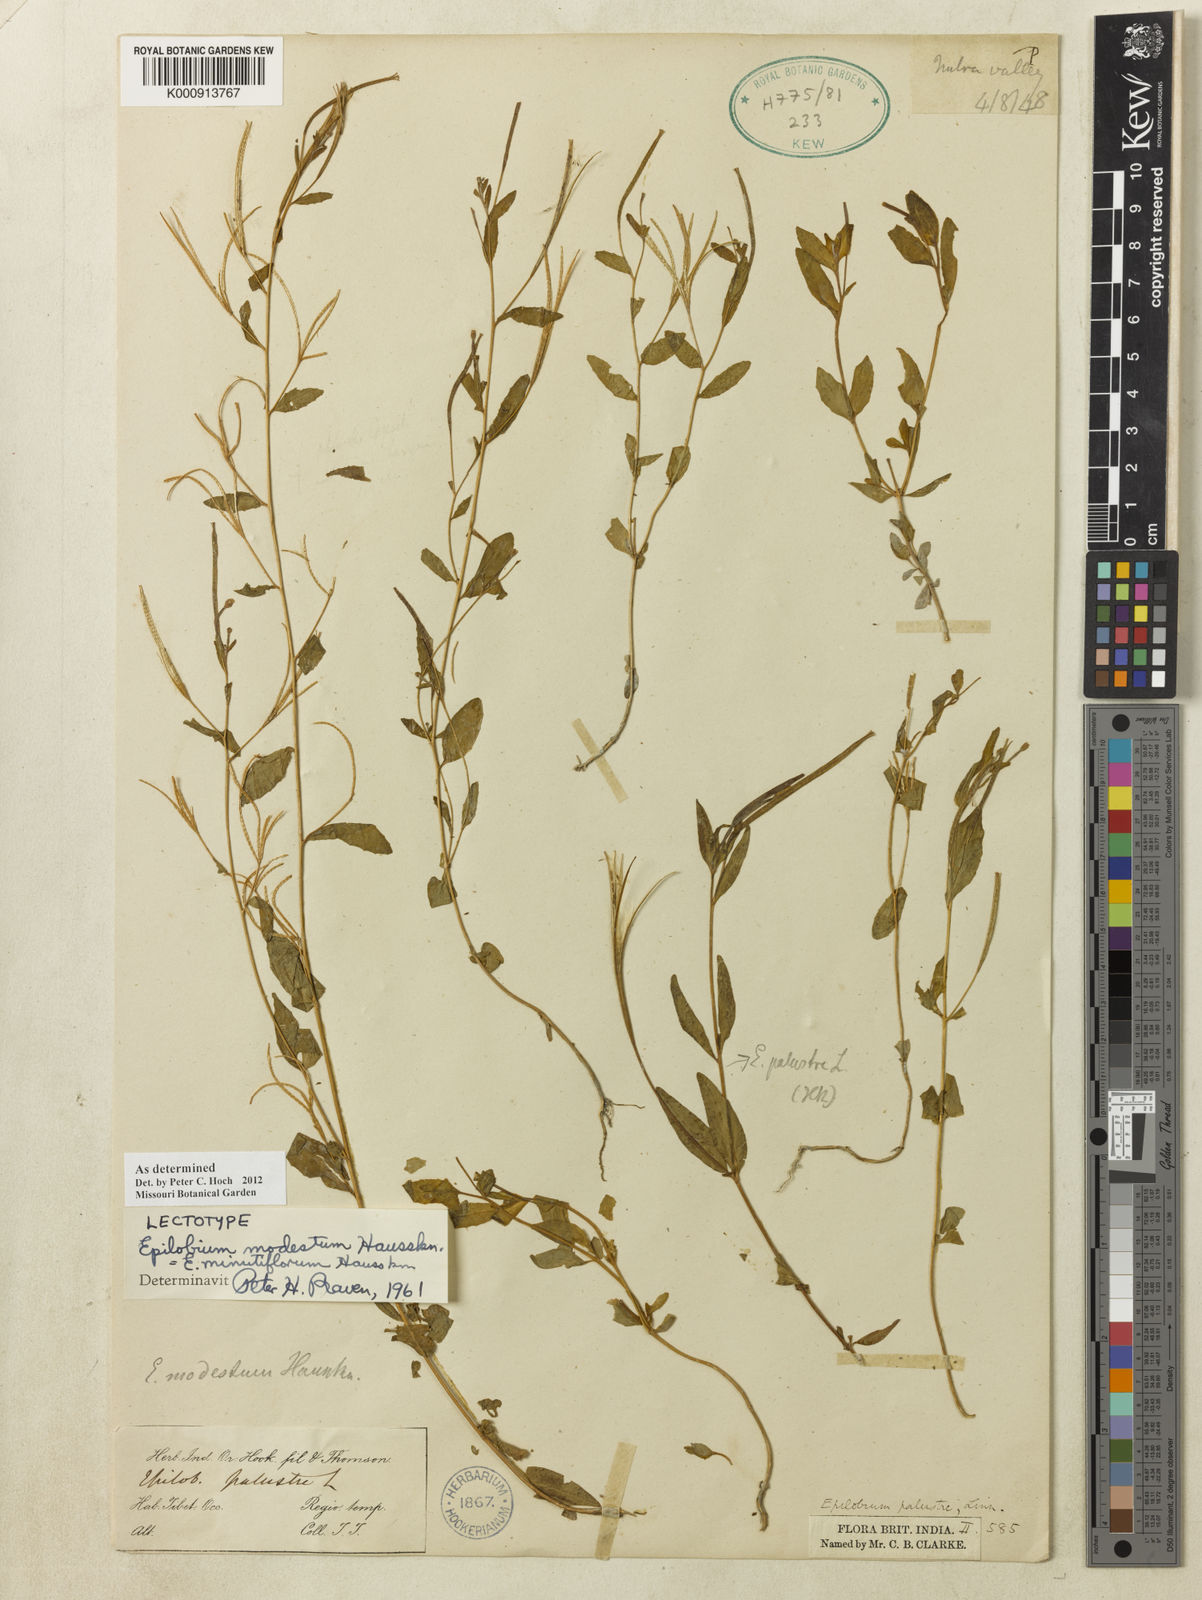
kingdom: Plantae
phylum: Tracheophyta
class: Magnoliopsida
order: Myrtales
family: Onagraceae
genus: Epilobium
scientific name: Epilobium minutiflorum
